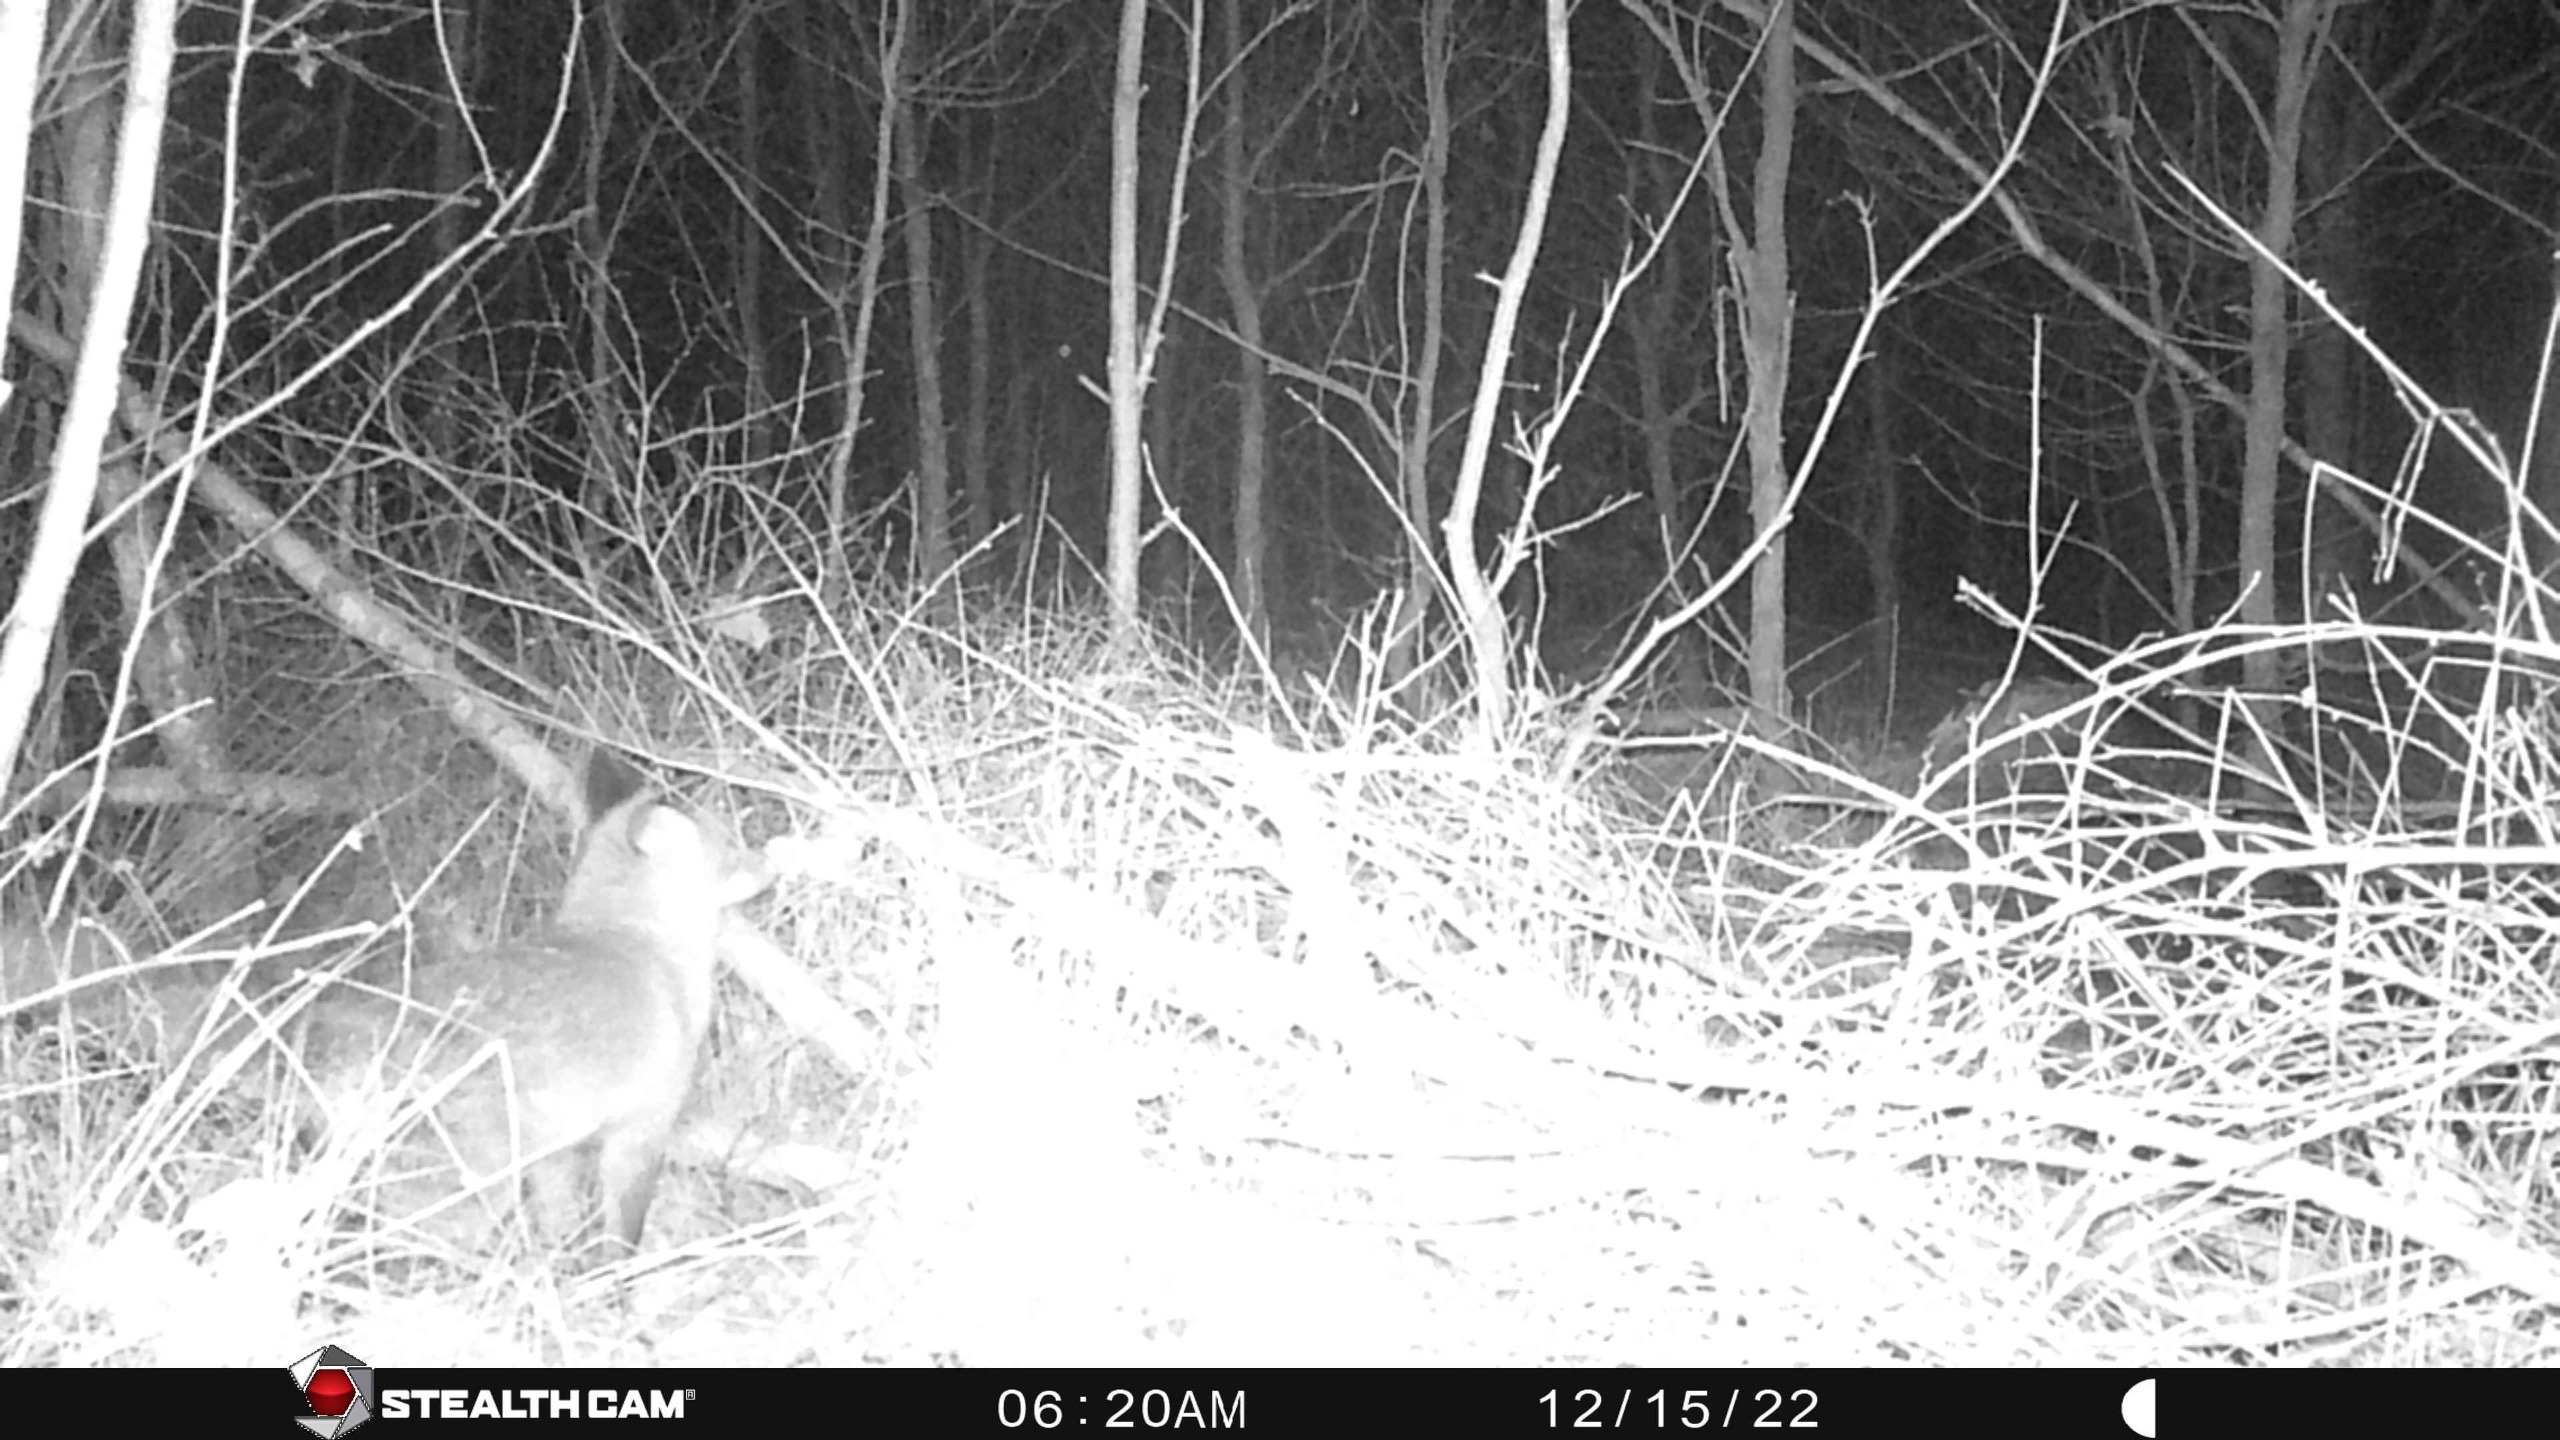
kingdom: Animalia
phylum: Chordata
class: Mammalia
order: Carnivora
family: Canidae
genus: Vulpes
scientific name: Vulpes vulpes
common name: Ræv
